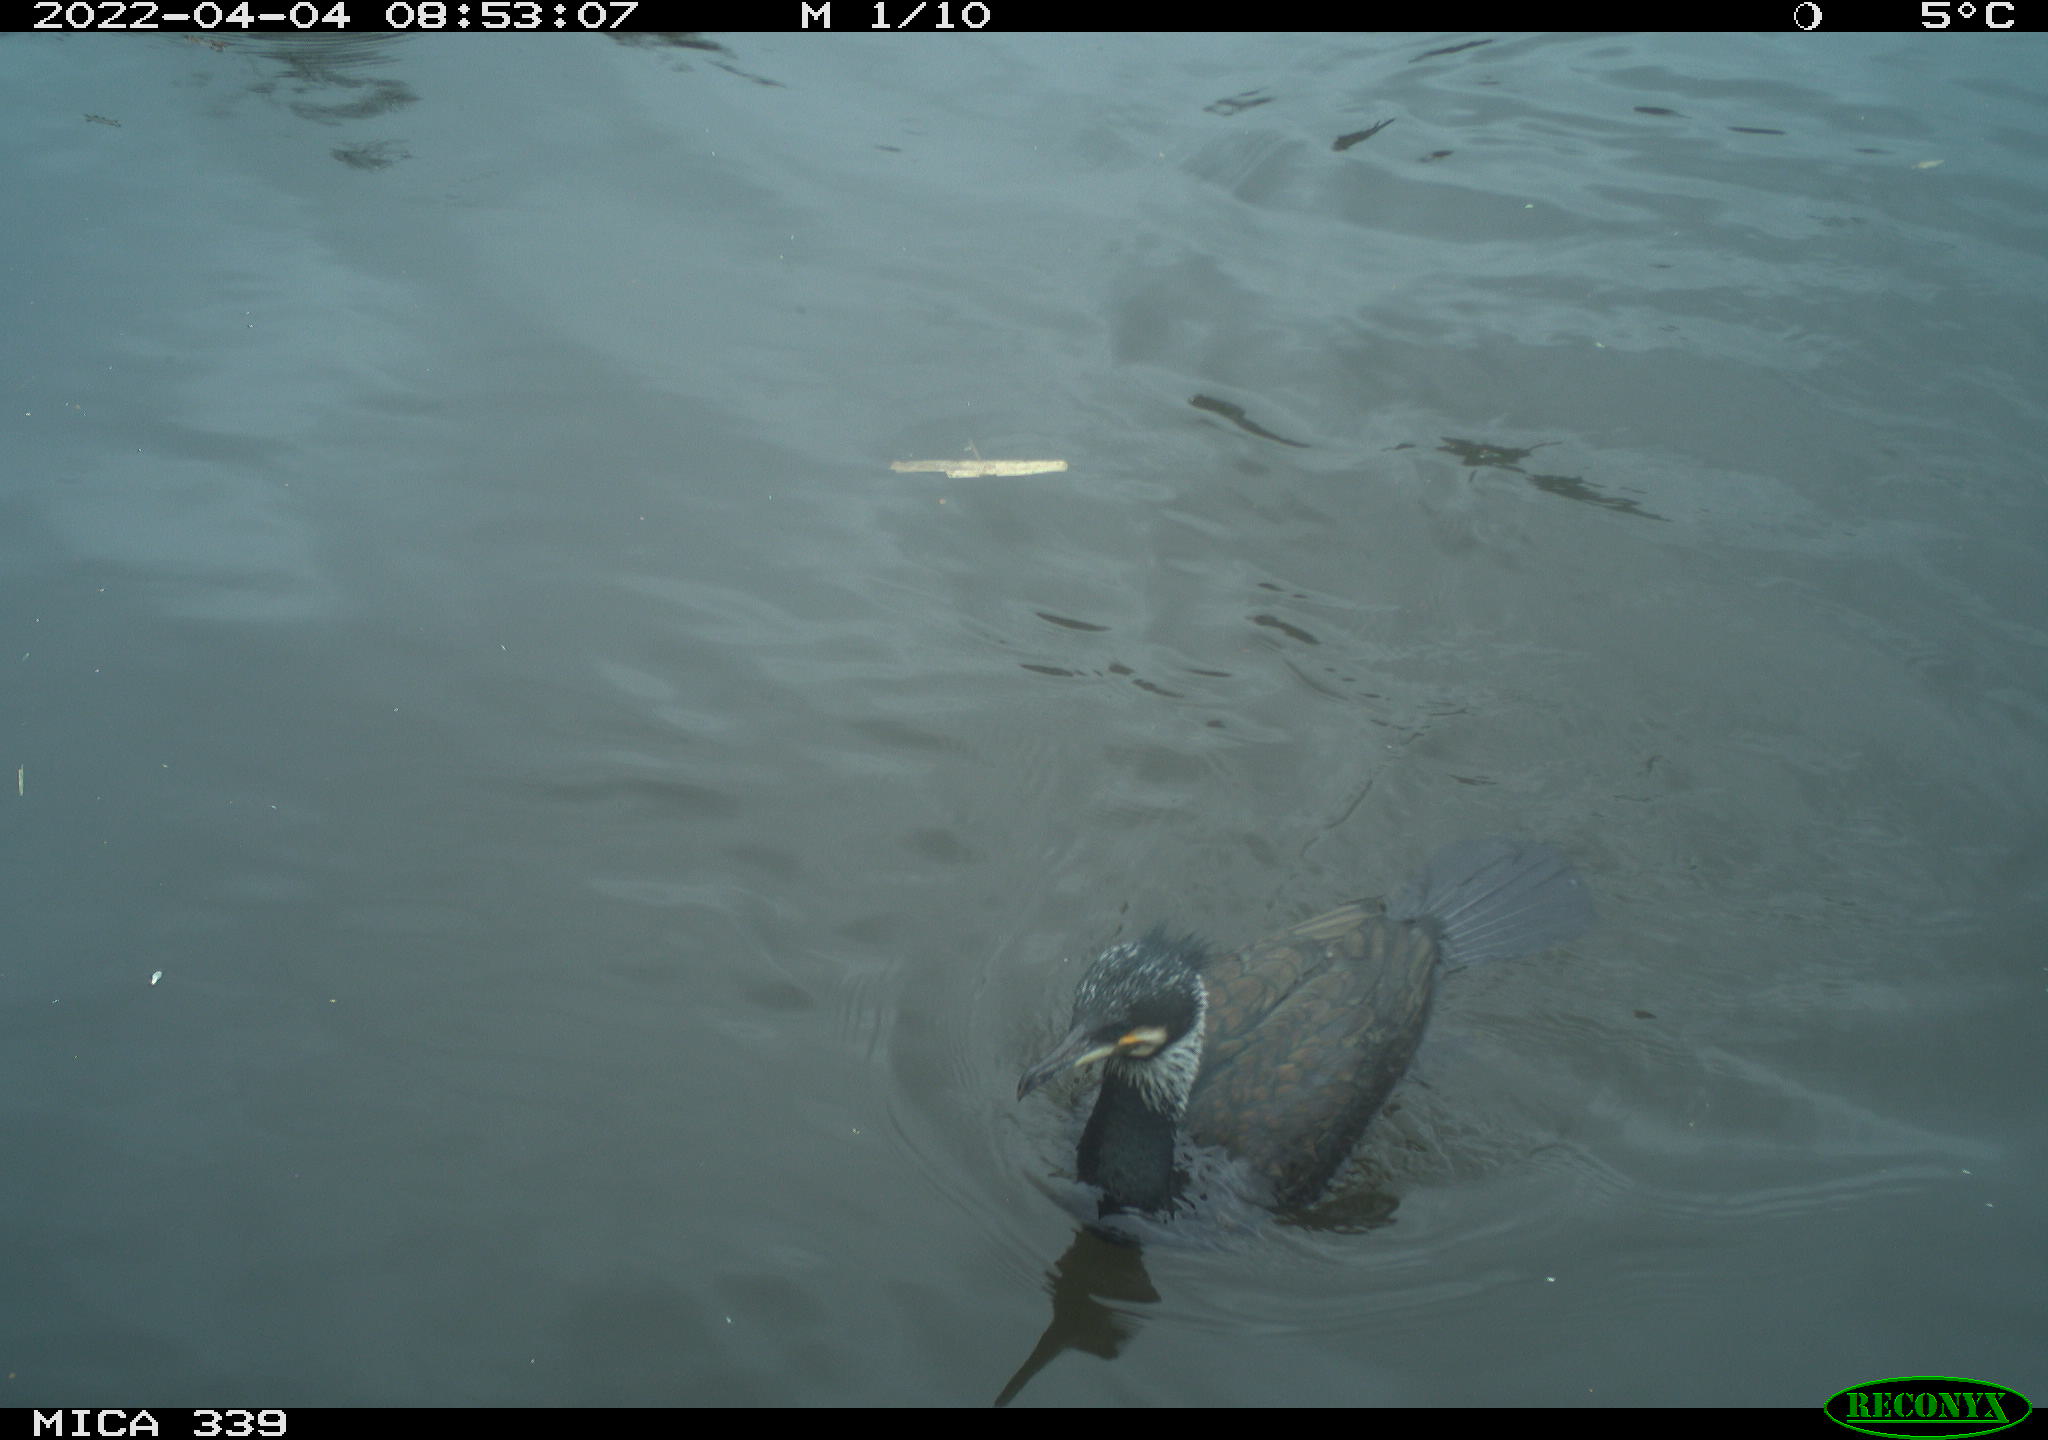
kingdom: Animalia
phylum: Chordata
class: Aves
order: Suliformes
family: Phalacrocoracidae
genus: Phalacrocorax
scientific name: Phalacrocorax carbo
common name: Great cormorant
